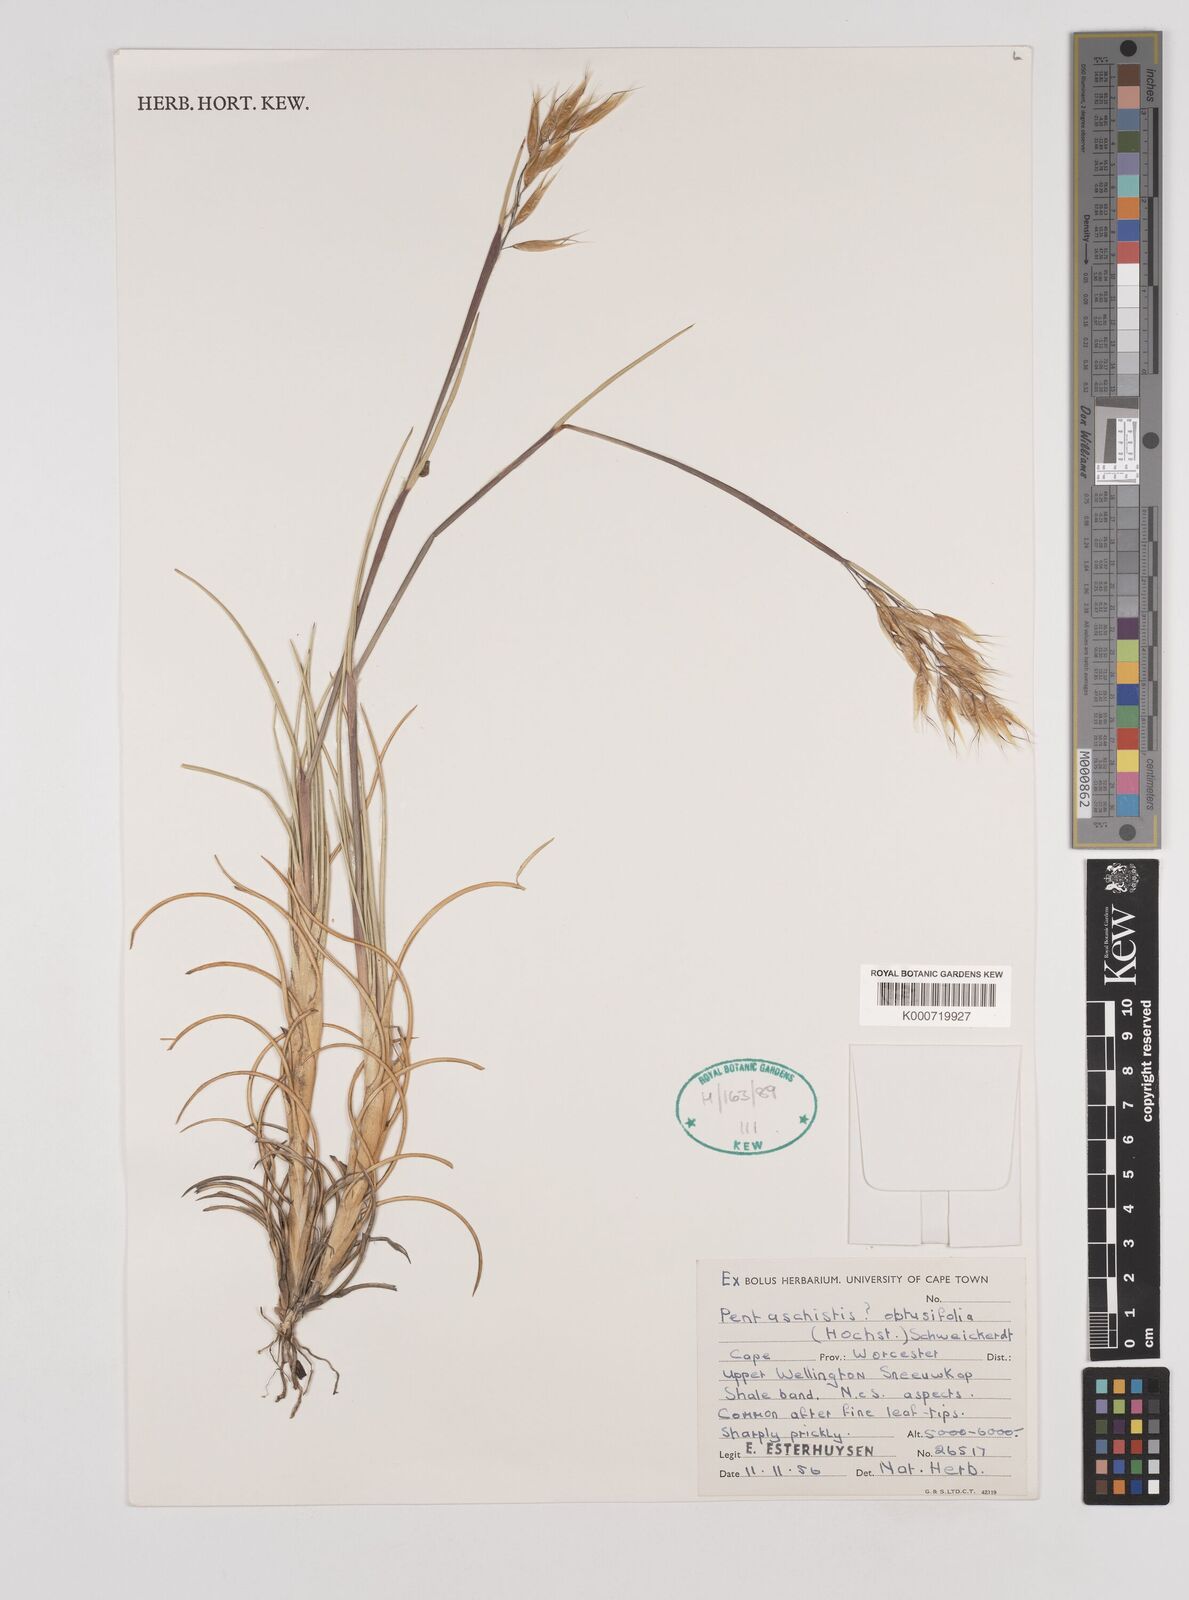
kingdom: Plantae
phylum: Tracheophyta
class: Liliopsida
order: Poales
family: Poaceae
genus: Pentameris
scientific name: Pentameris dregeana
